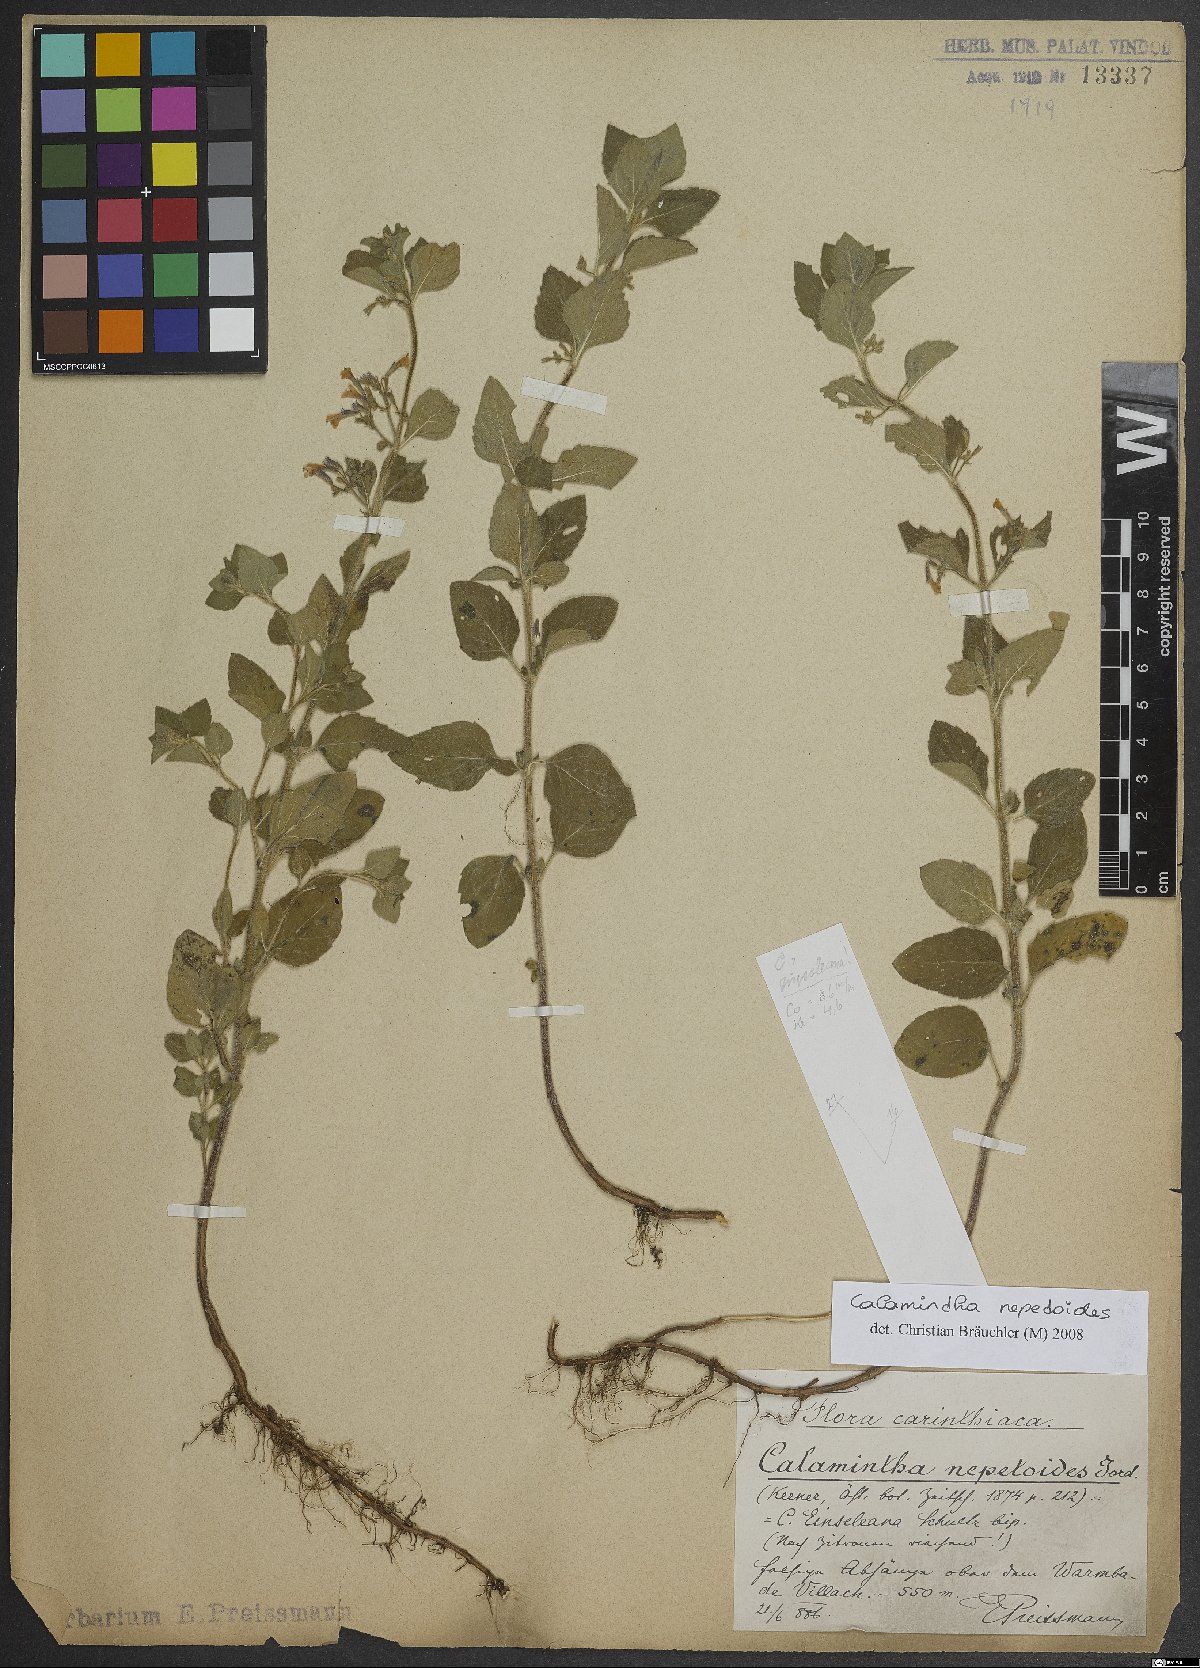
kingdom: Plantae
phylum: Tracheophyta
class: Magnoliopsida
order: Lamiales
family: Lamiaceae
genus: Clinopodium
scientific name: Clinopodium nepeta
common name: Lesser calamint
